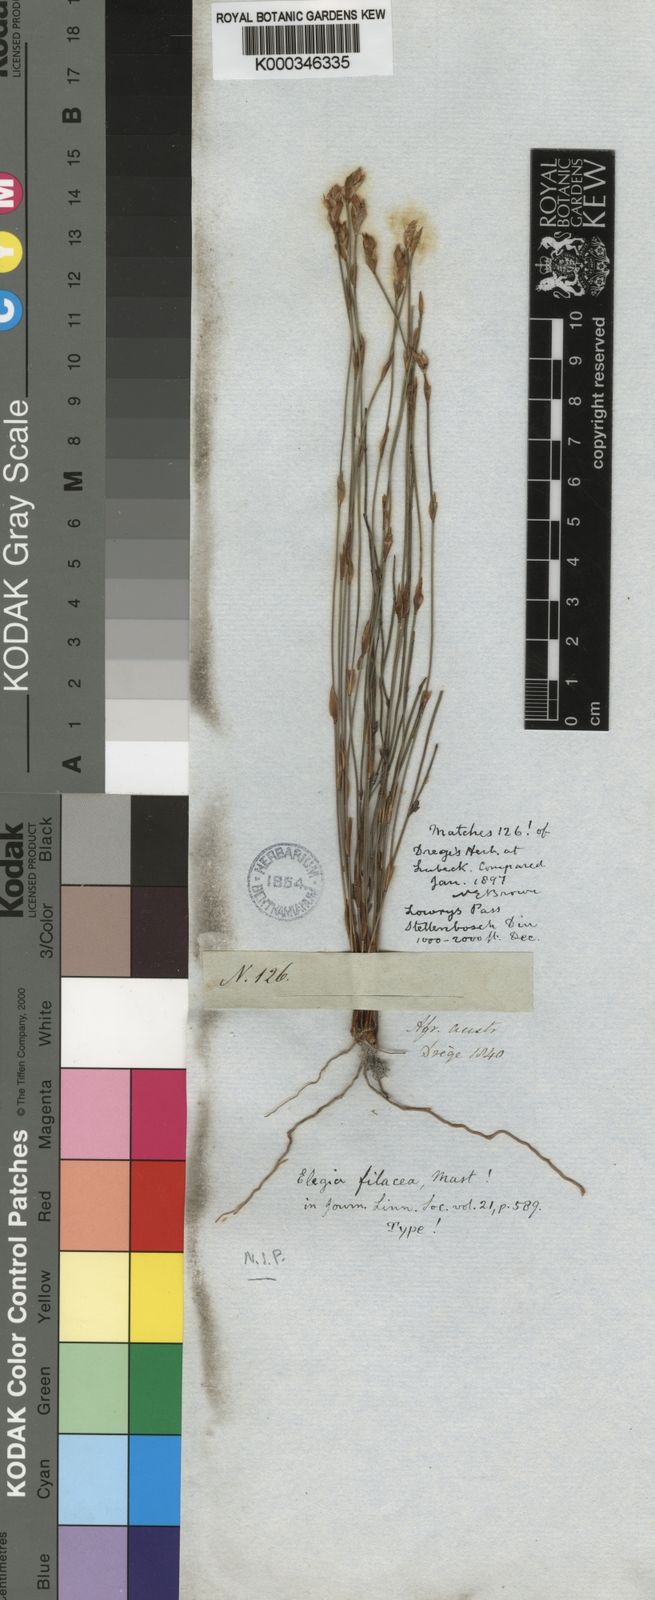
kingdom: Plantae
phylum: Tracheophyta
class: Liliopsida
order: Poales
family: Restionaceae
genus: Elegia
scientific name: Elegia filacea
